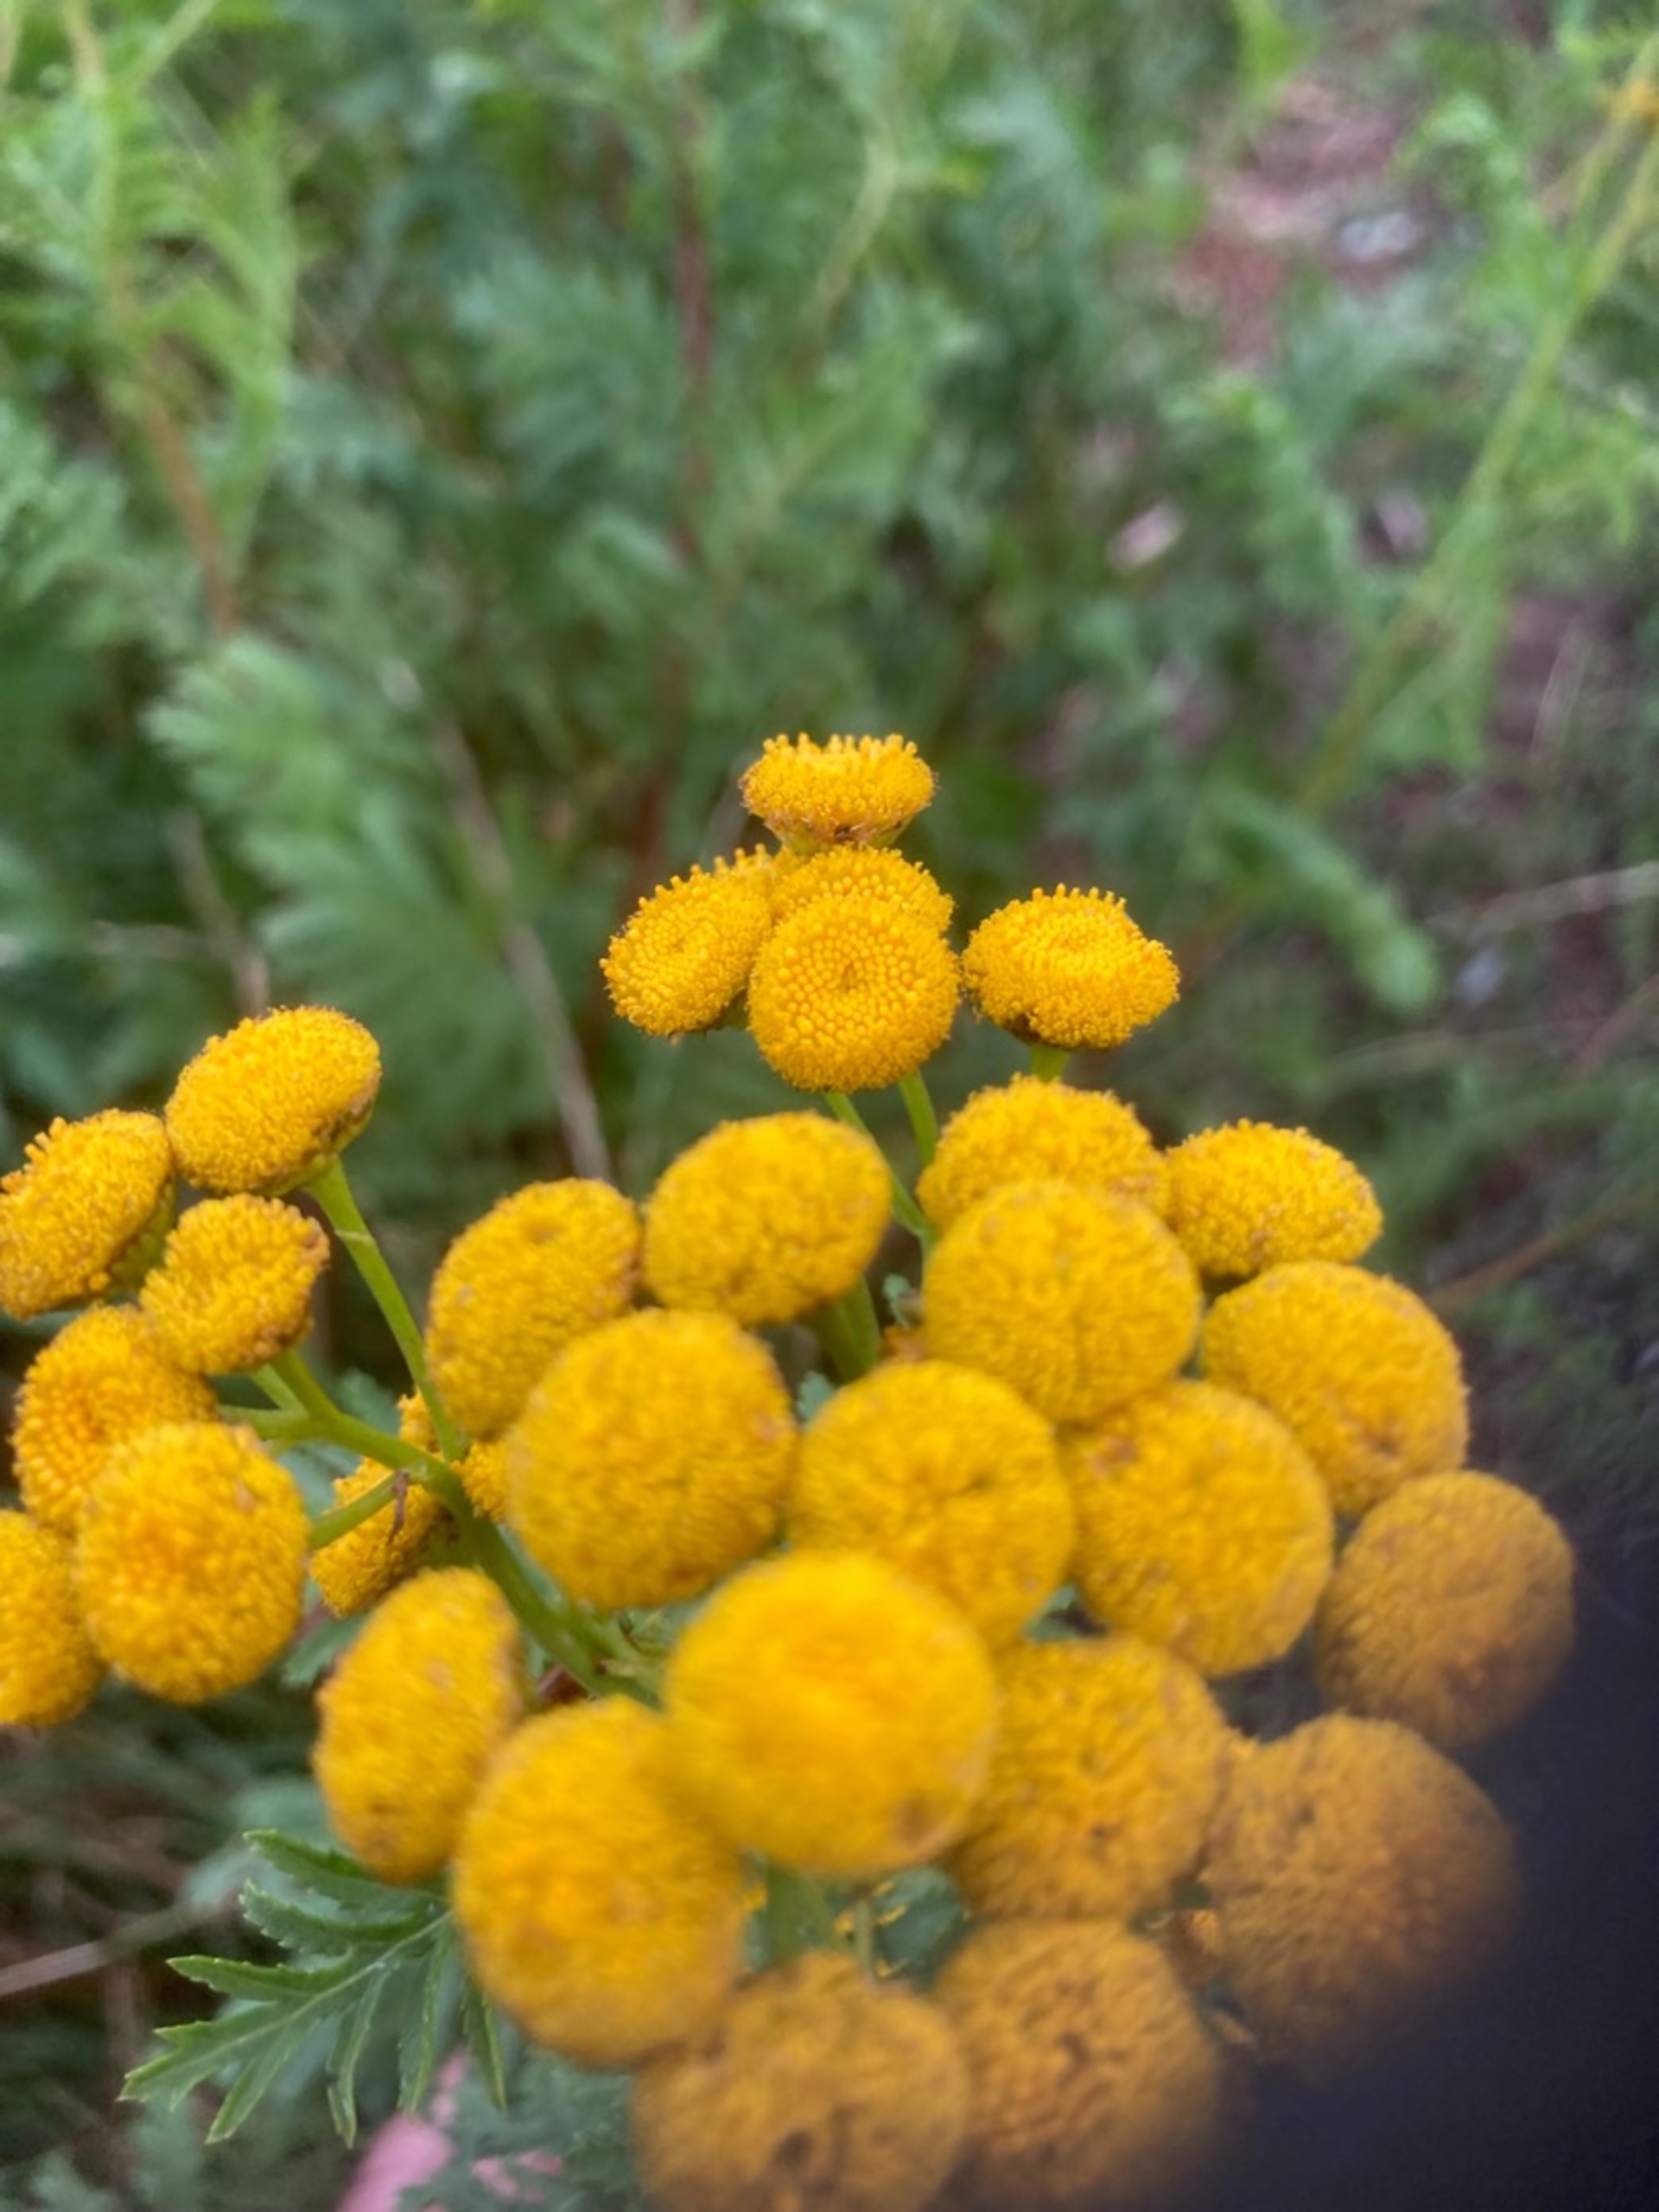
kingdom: Plantae
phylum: Tracheophyta
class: Magnoliopsida
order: Asterales
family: Asteraceae
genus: Tanacetum
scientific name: Tanacetum vulgare
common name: Rejnfan
